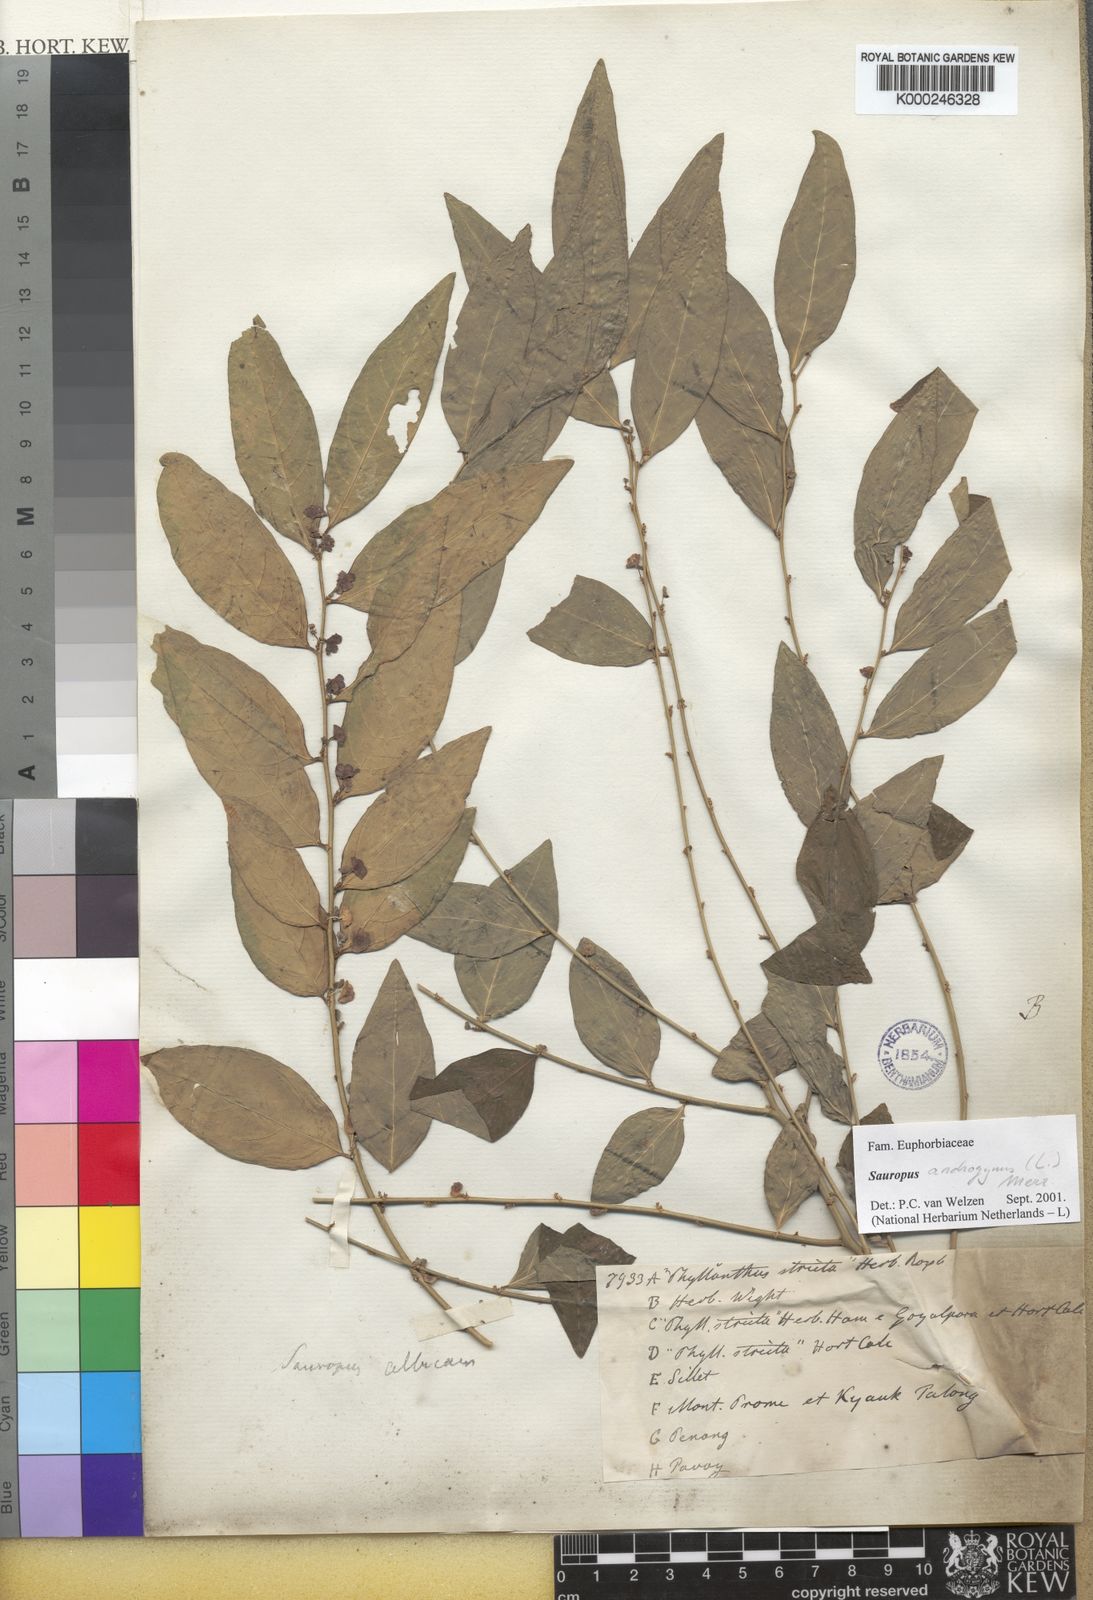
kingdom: Plantae
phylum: Tracheophyta
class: Magnoliopsida
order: Malpighiales
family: Phyllanthaceae
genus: Breynia
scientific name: Breynia androgyna
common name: Star gooseberry
